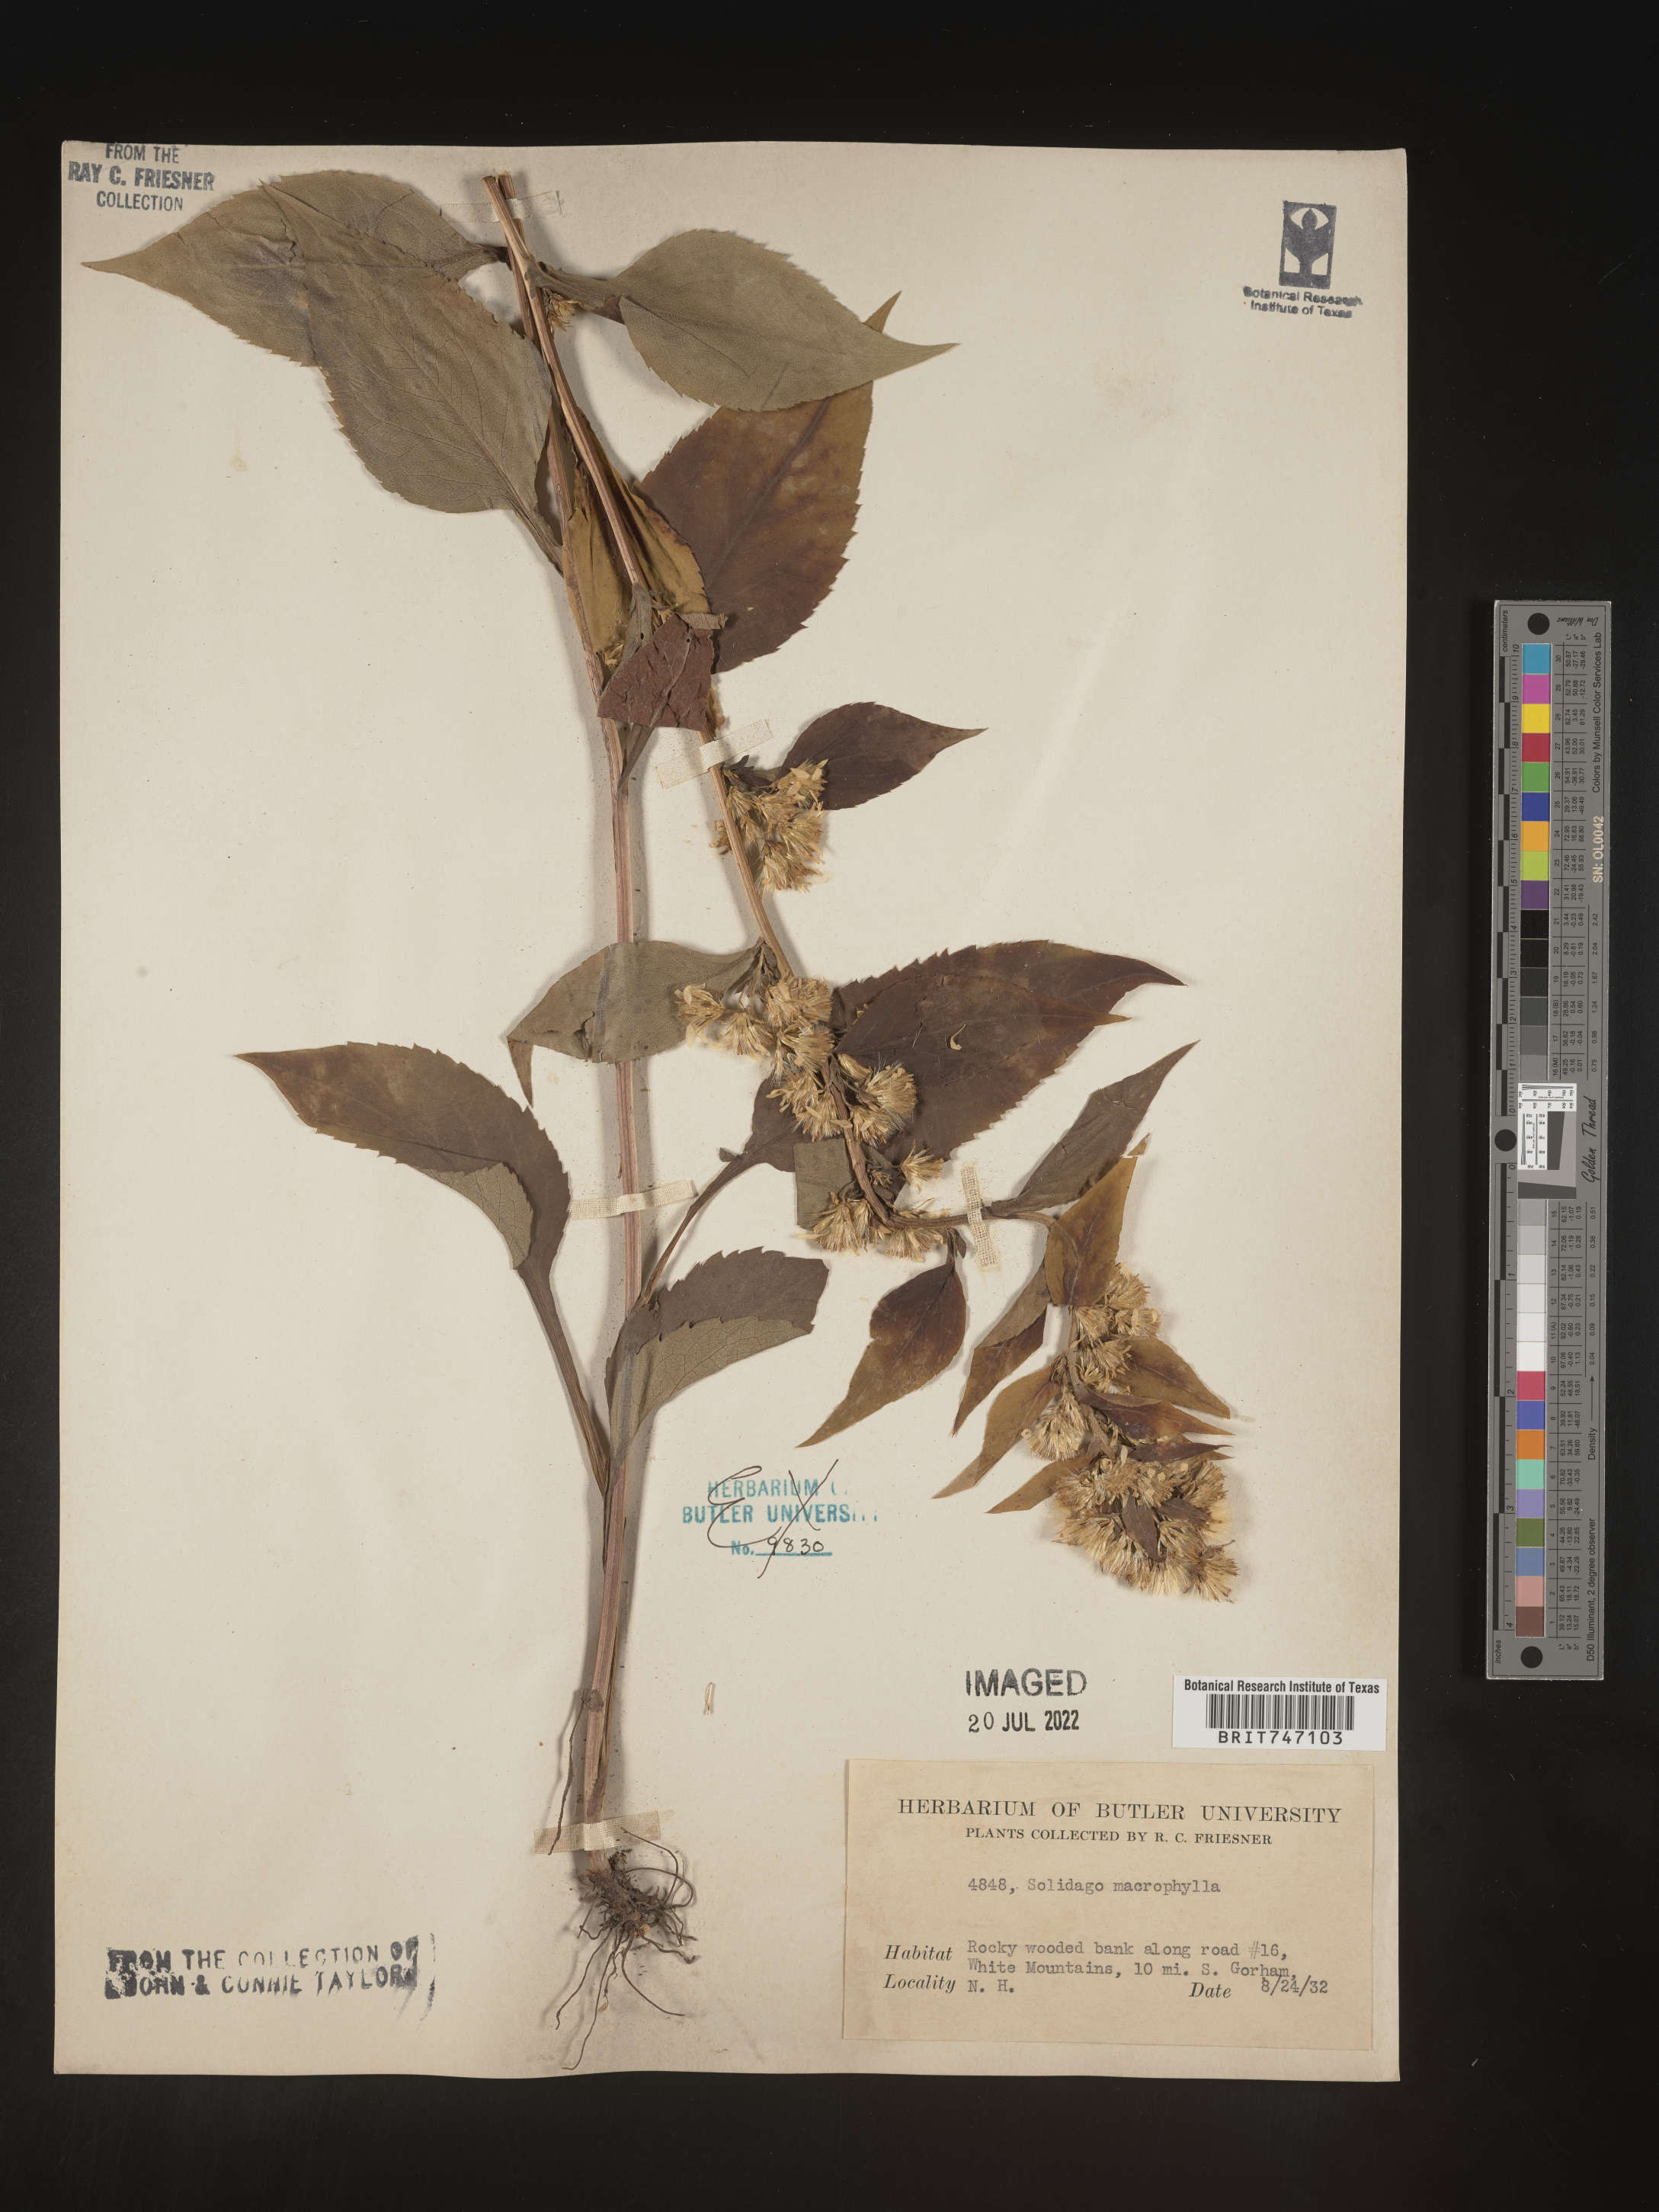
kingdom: Plantae
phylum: Tracheophyta
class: Magnoliopsida
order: Asterales
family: Asteraceae
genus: Solidago
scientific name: Solidago macrophylla
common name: Large-leaved goldenrod
